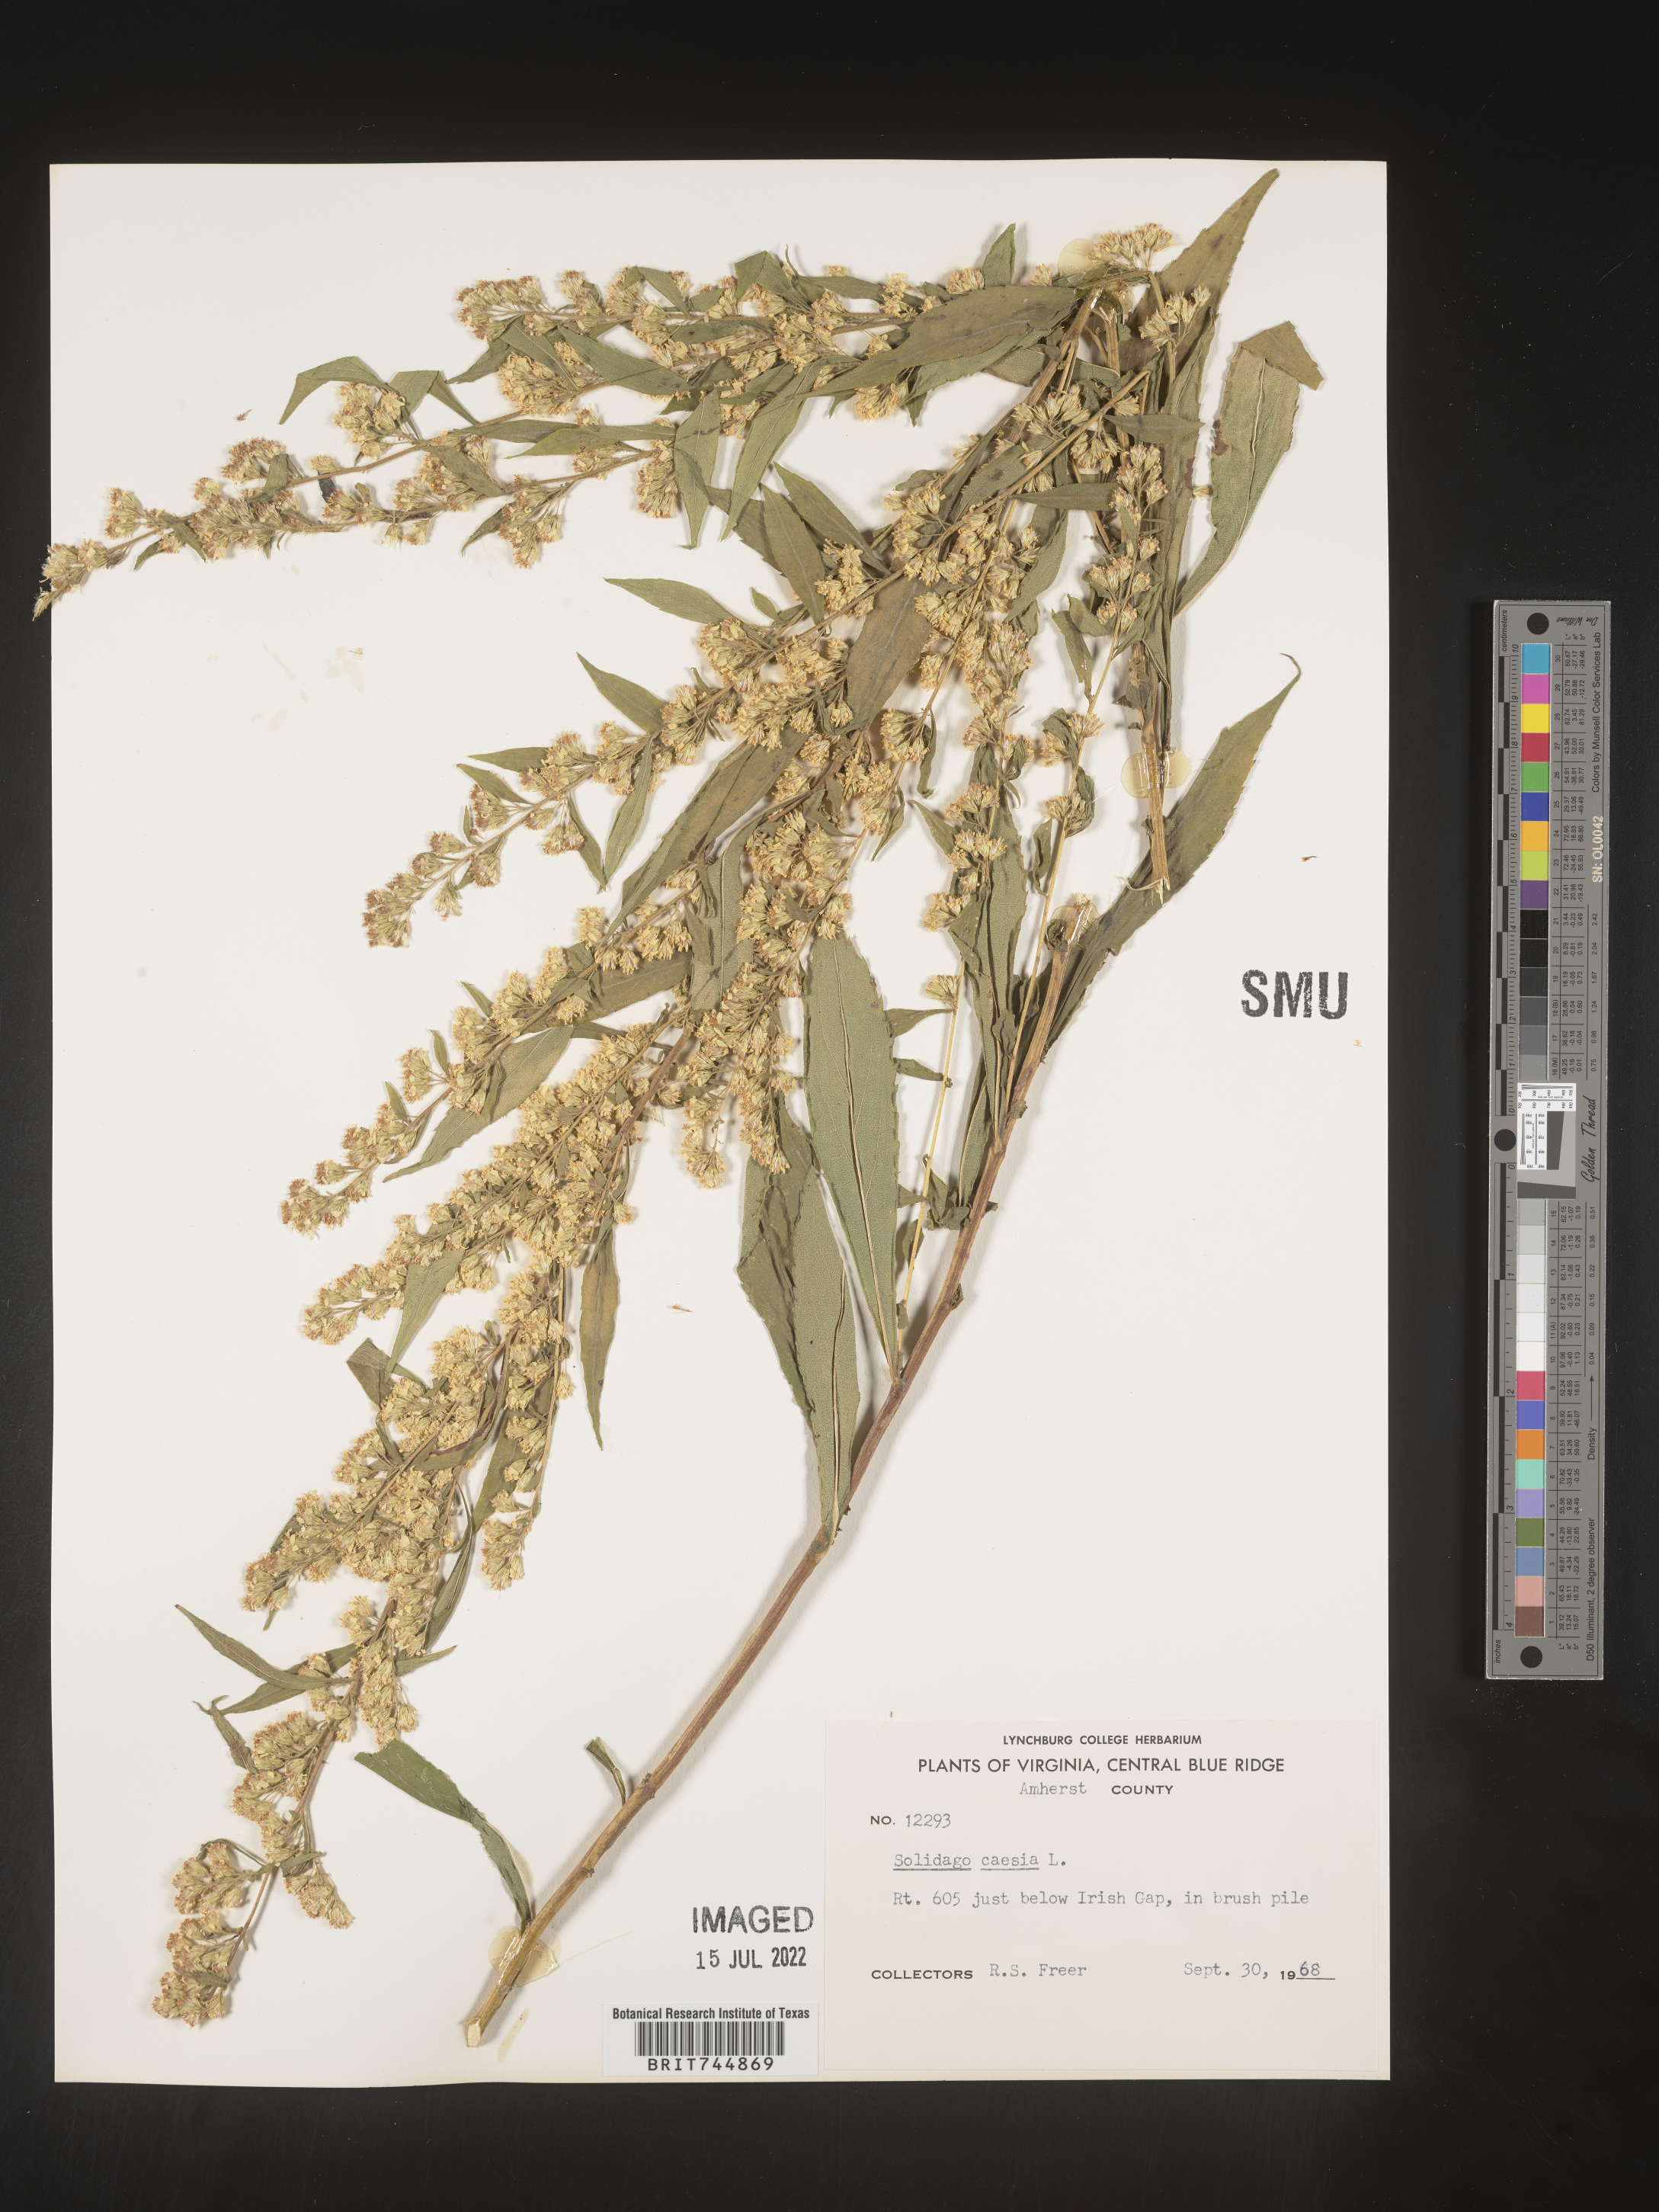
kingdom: Plantae
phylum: Tracheophyta
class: Magnoliopsida
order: Asterales
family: Asteraceae
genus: Solidago
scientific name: Solidago caesia
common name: Woodland goldenrod
